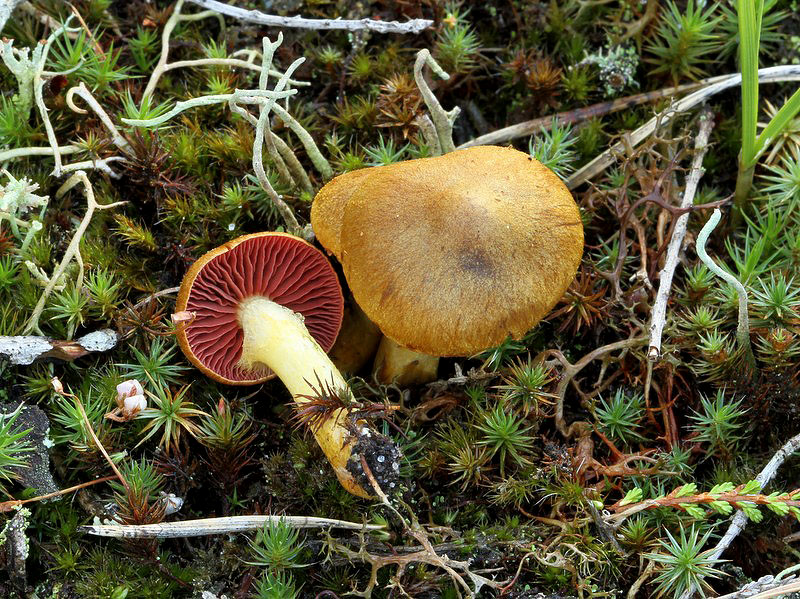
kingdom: Fungi
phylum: Basidiomycota
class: Agaricomycetes
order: Agaricales
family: Cortinariaceae
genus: Cortinarius
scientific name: Cortinarius
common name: cinnoberbladet slørhat
